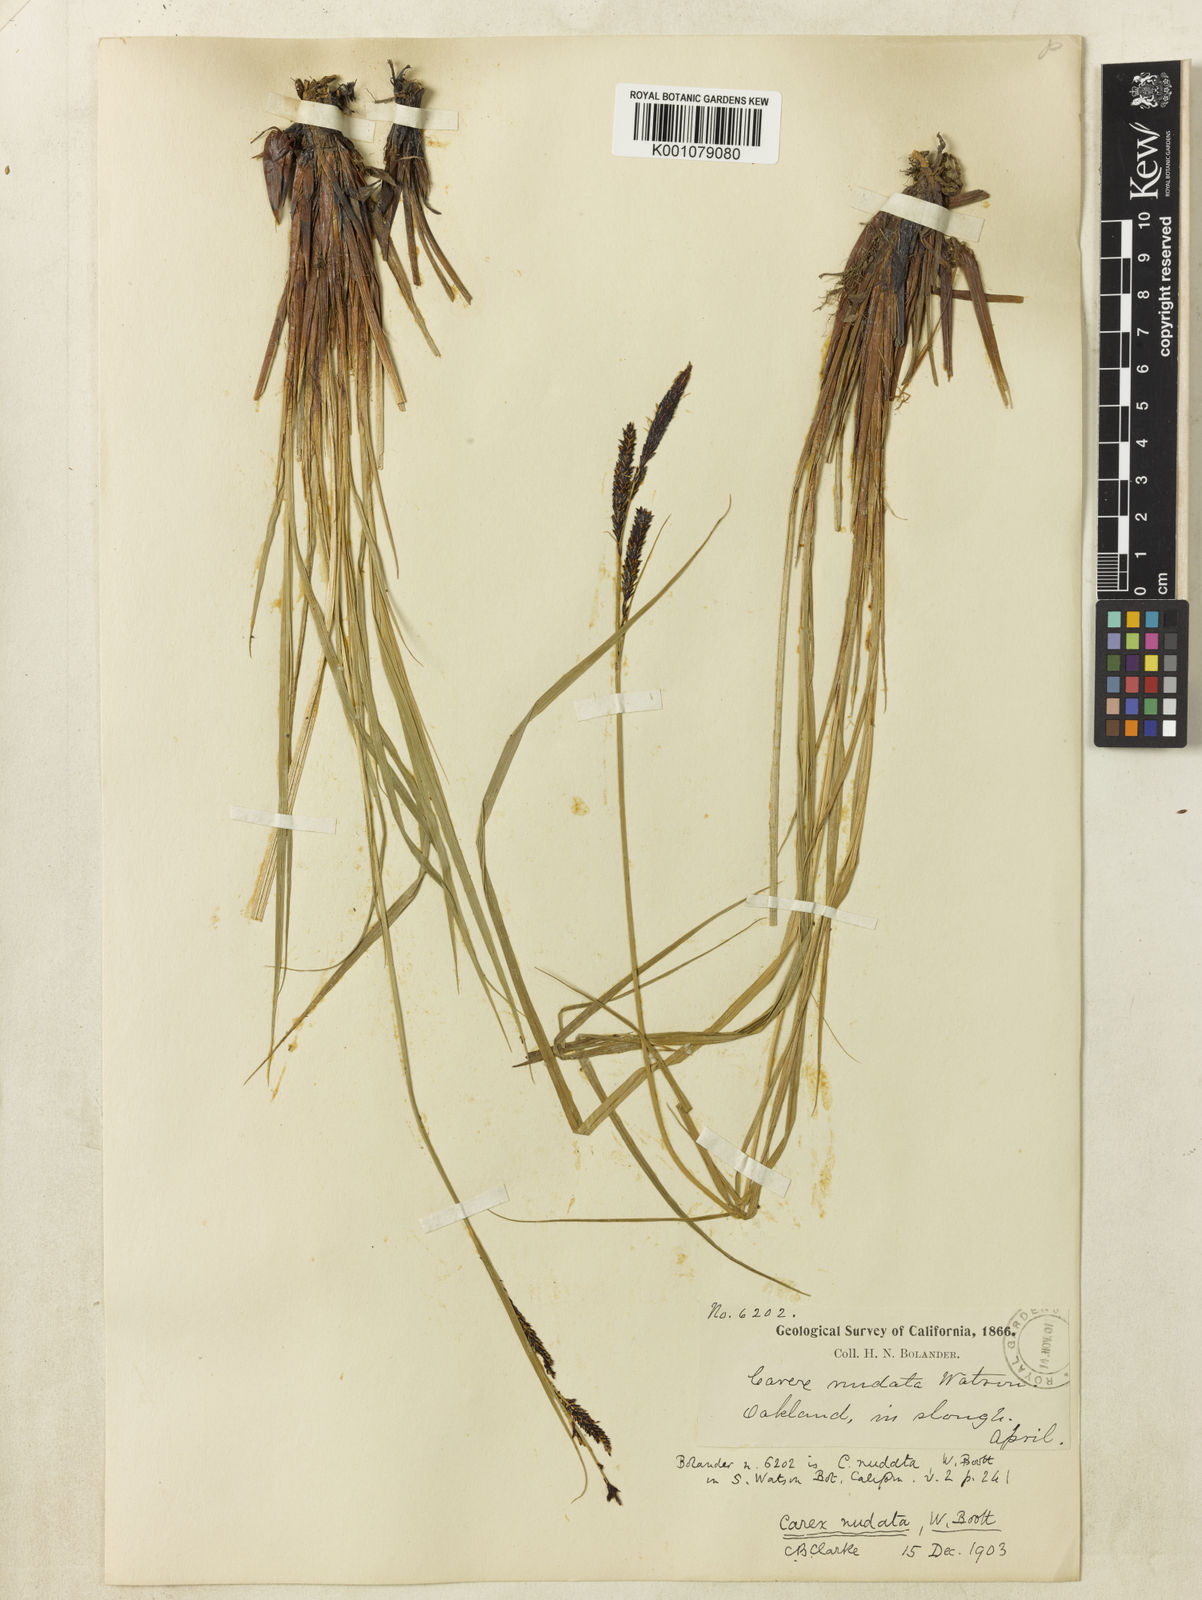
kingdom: Plantae
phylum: Tracheophyta
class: Liliopsida
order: Poales
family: Cyperaceae
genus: Carex
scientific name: Carex
